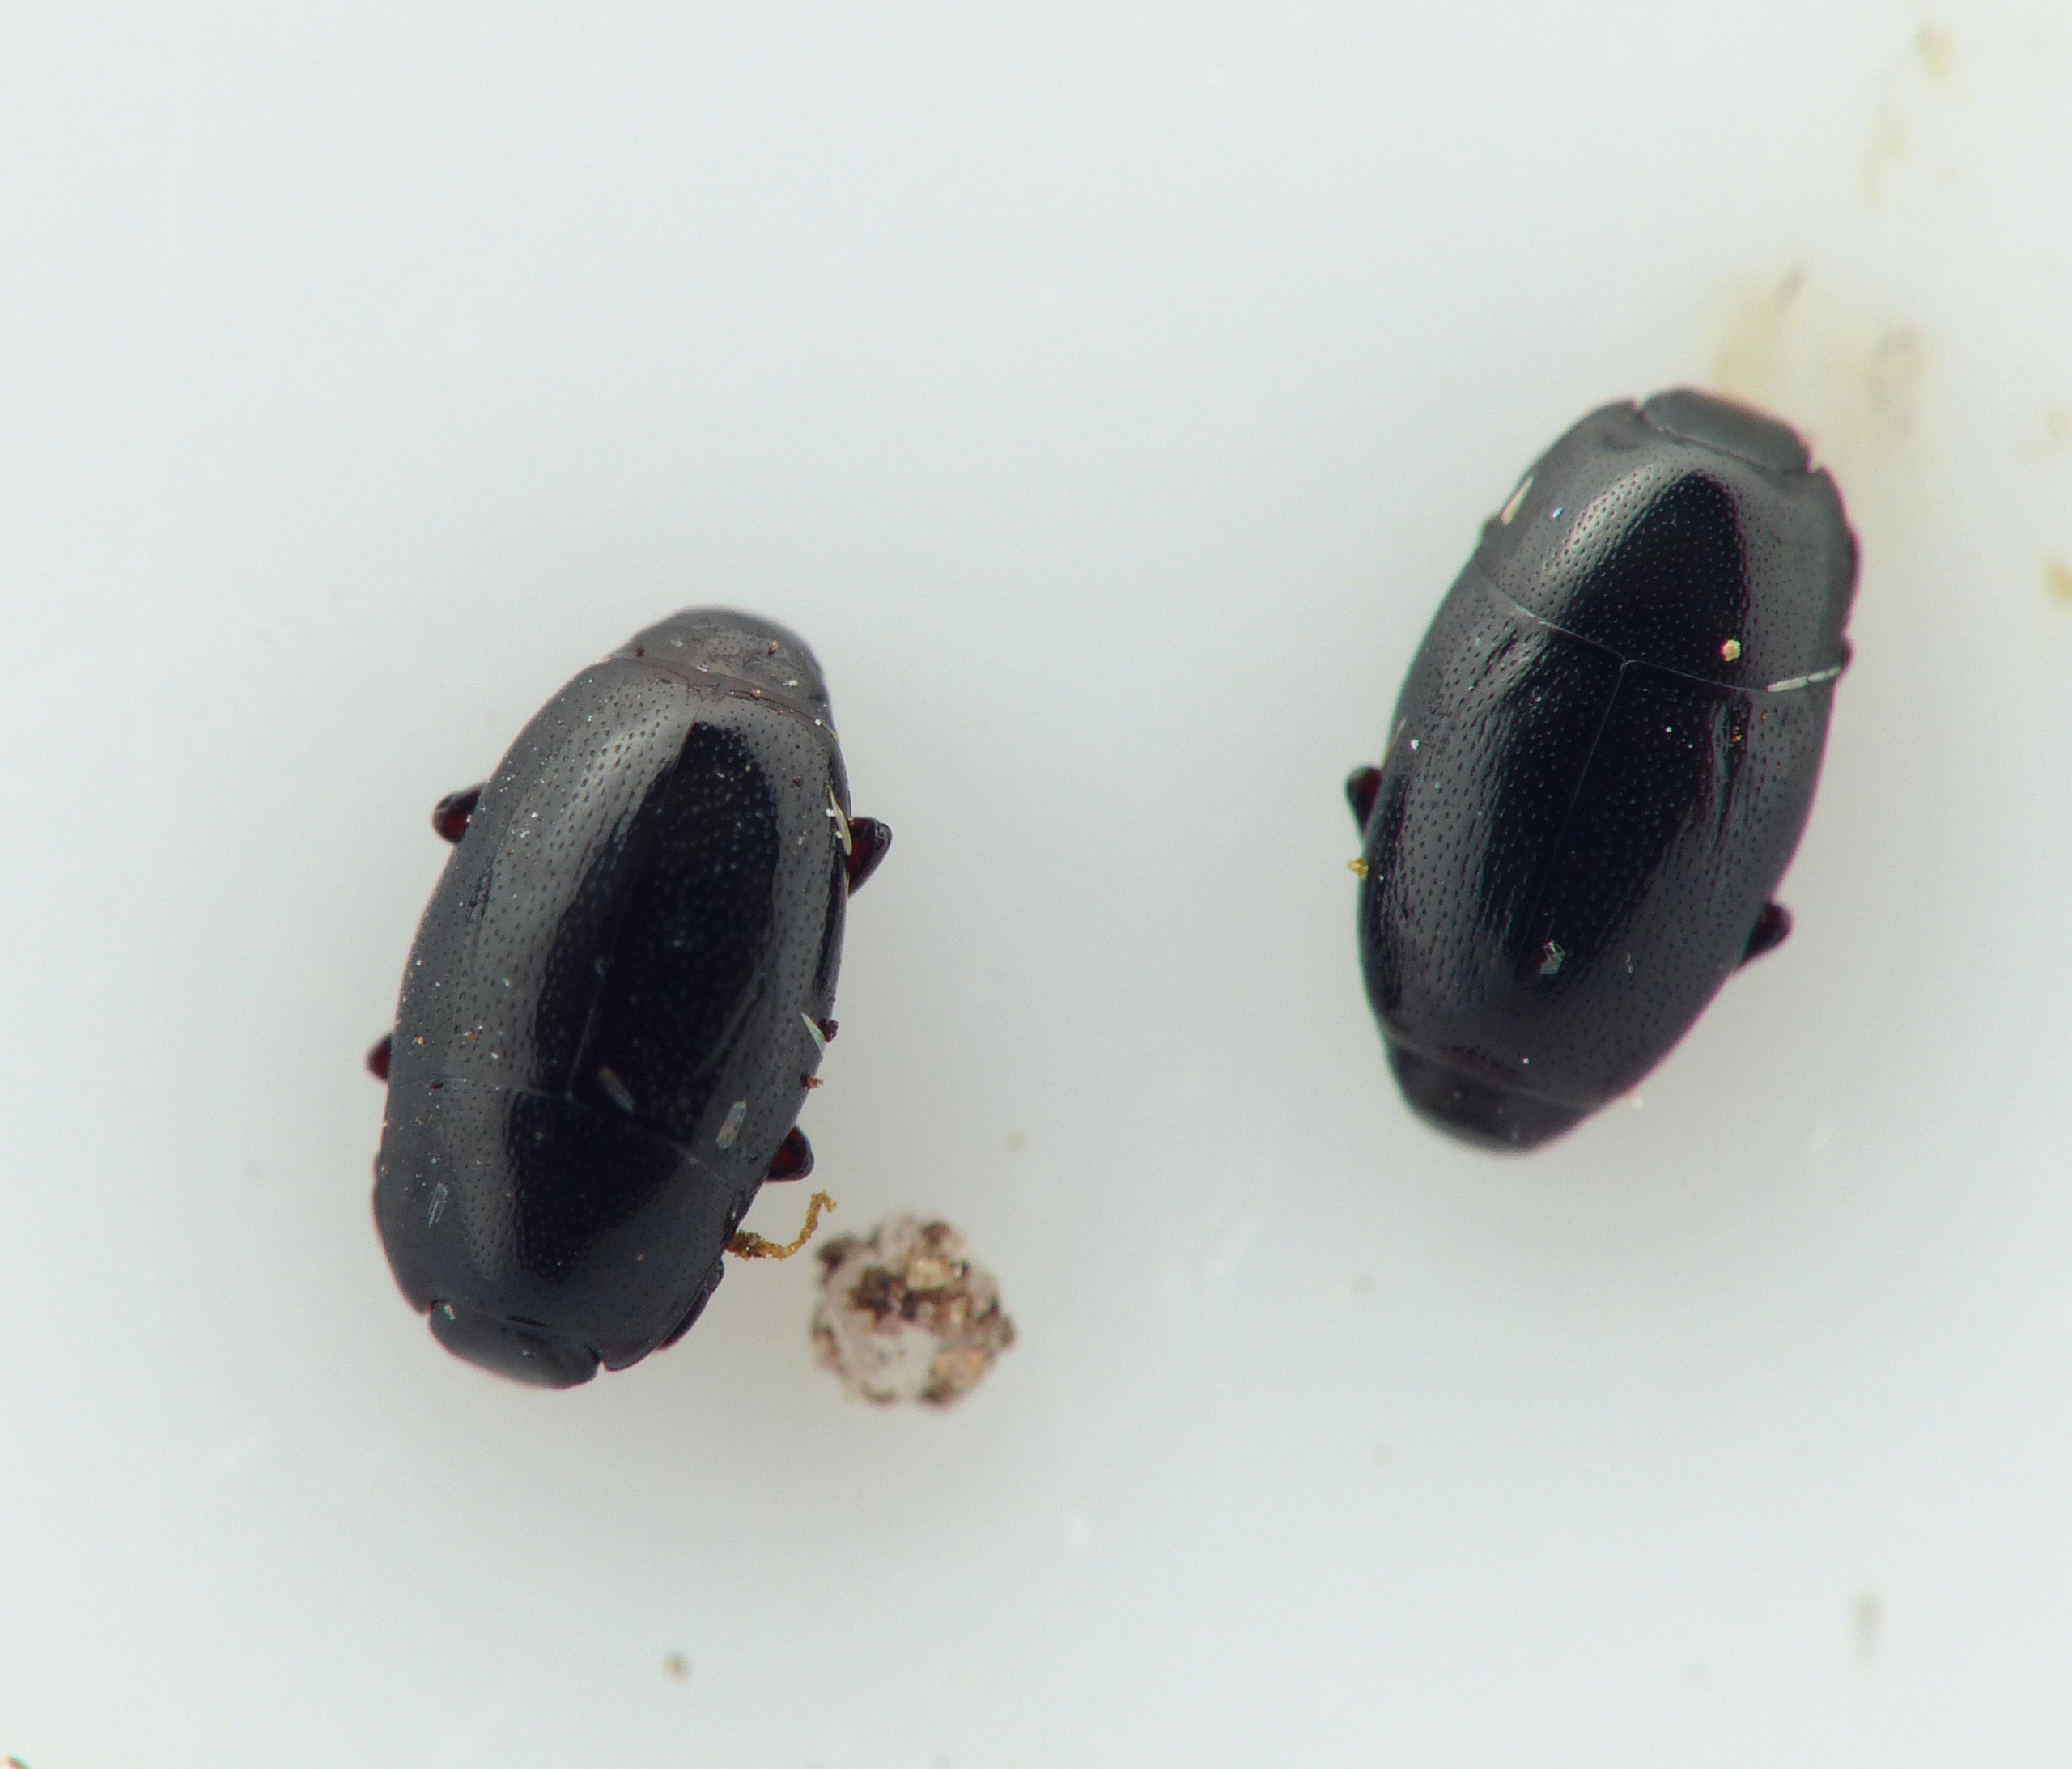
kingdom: Animalia
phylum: Arthropoda
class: Insecta
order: Coleoptera
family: Histeridae
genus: Paromalus
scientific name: Paromalus flavicornis
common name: Almindelig træstumpbille
